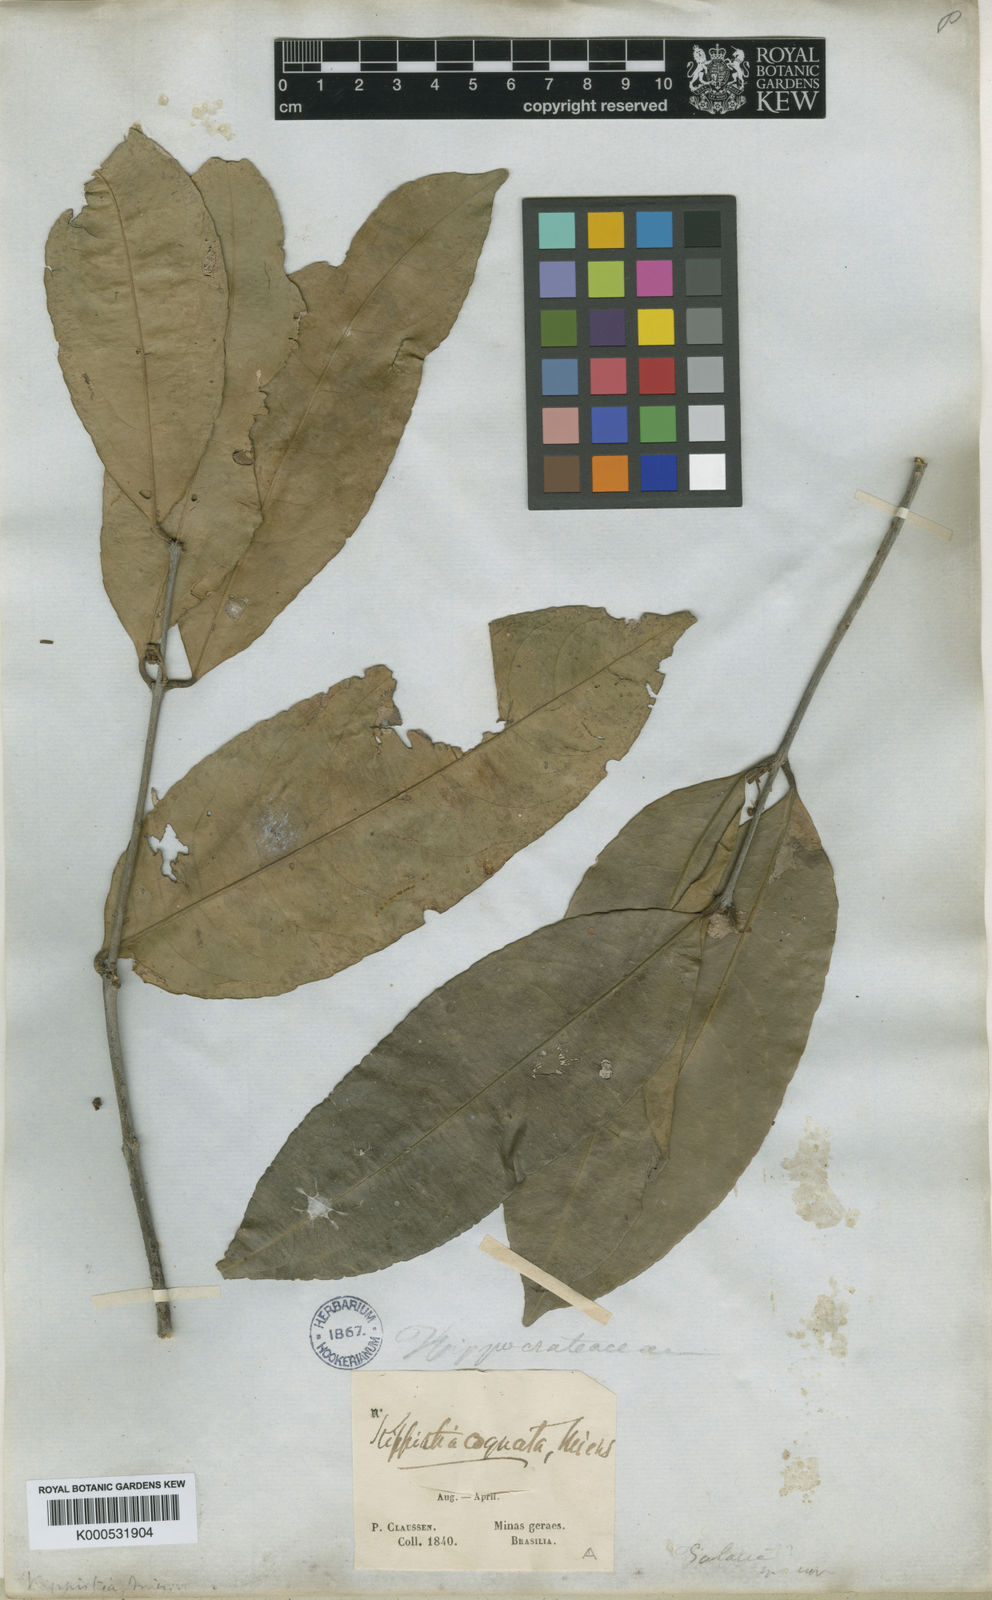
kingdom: Plantae
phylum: Tracheophyta
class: Magnoliopsida
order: Celastrales
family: Celastraceae
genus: Cheiloclinium
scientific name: Cheiloclinium cognatum
